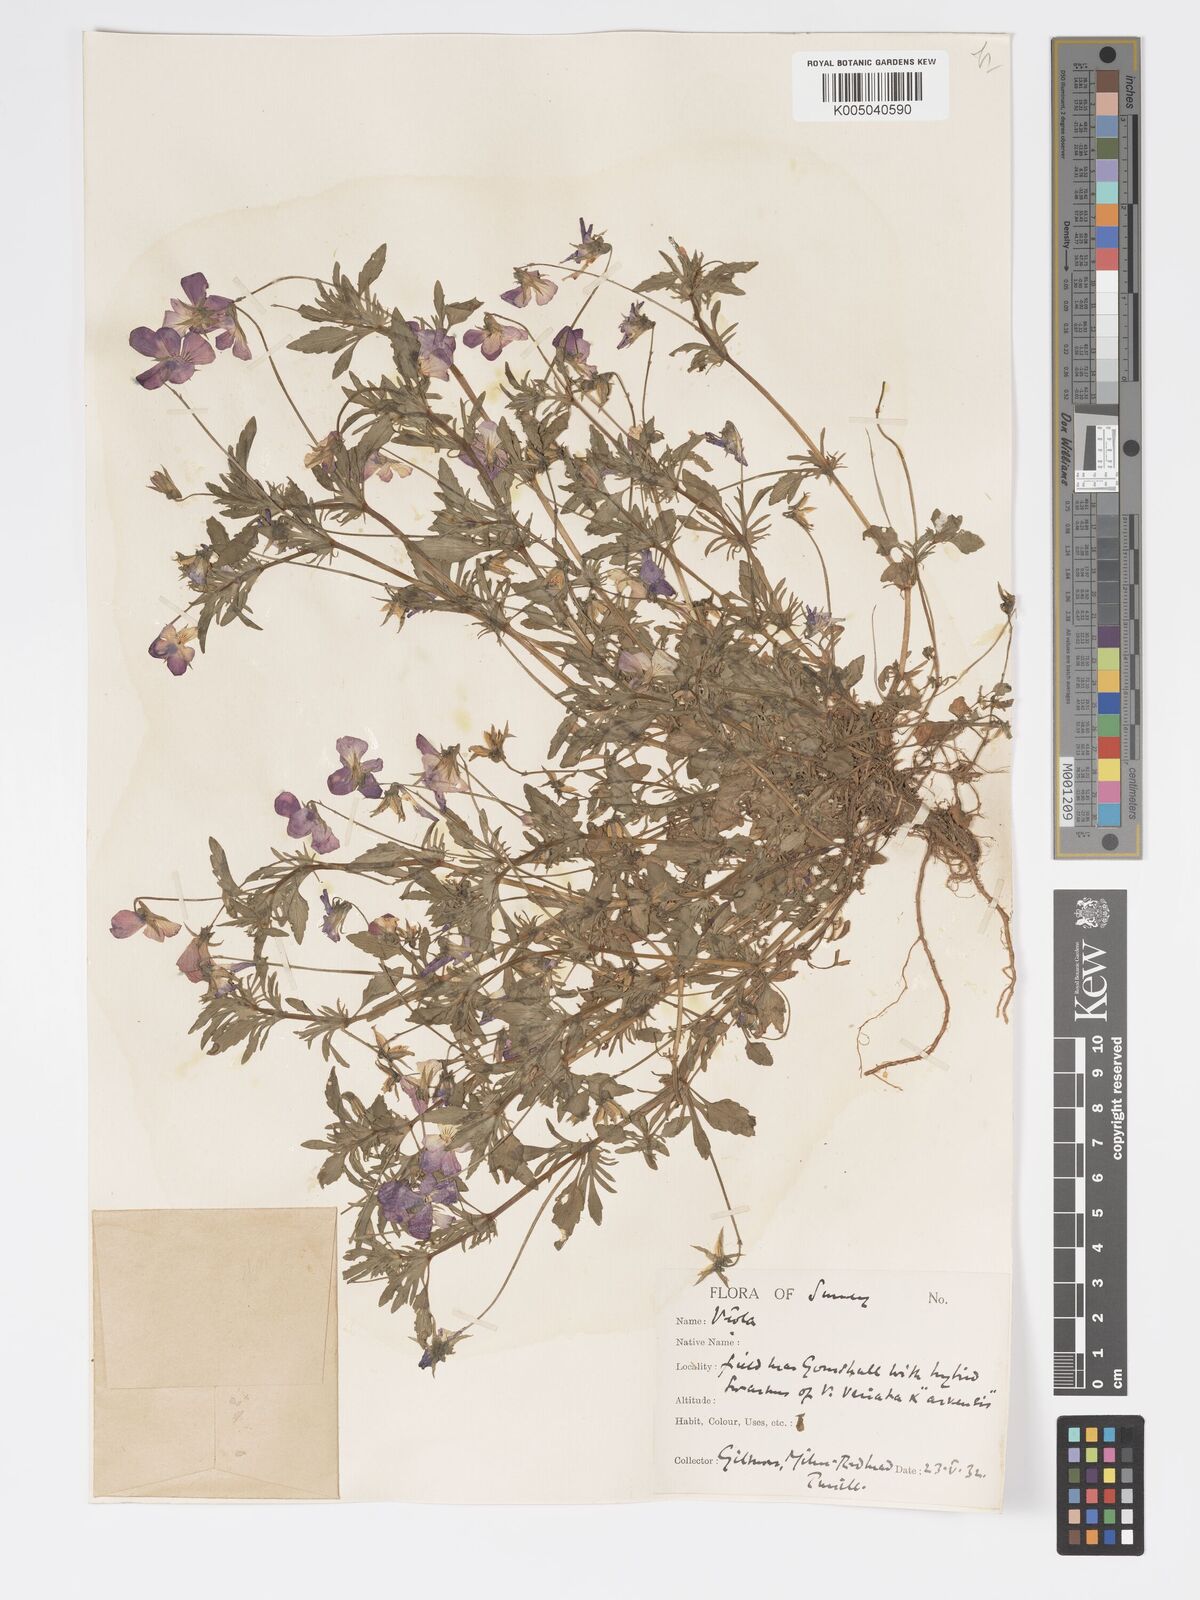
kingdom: Plantae
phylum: Tracheophyta
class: Magnoliopsida
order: Malpighiales
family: Violaceae
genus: Viola
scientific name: Viola
